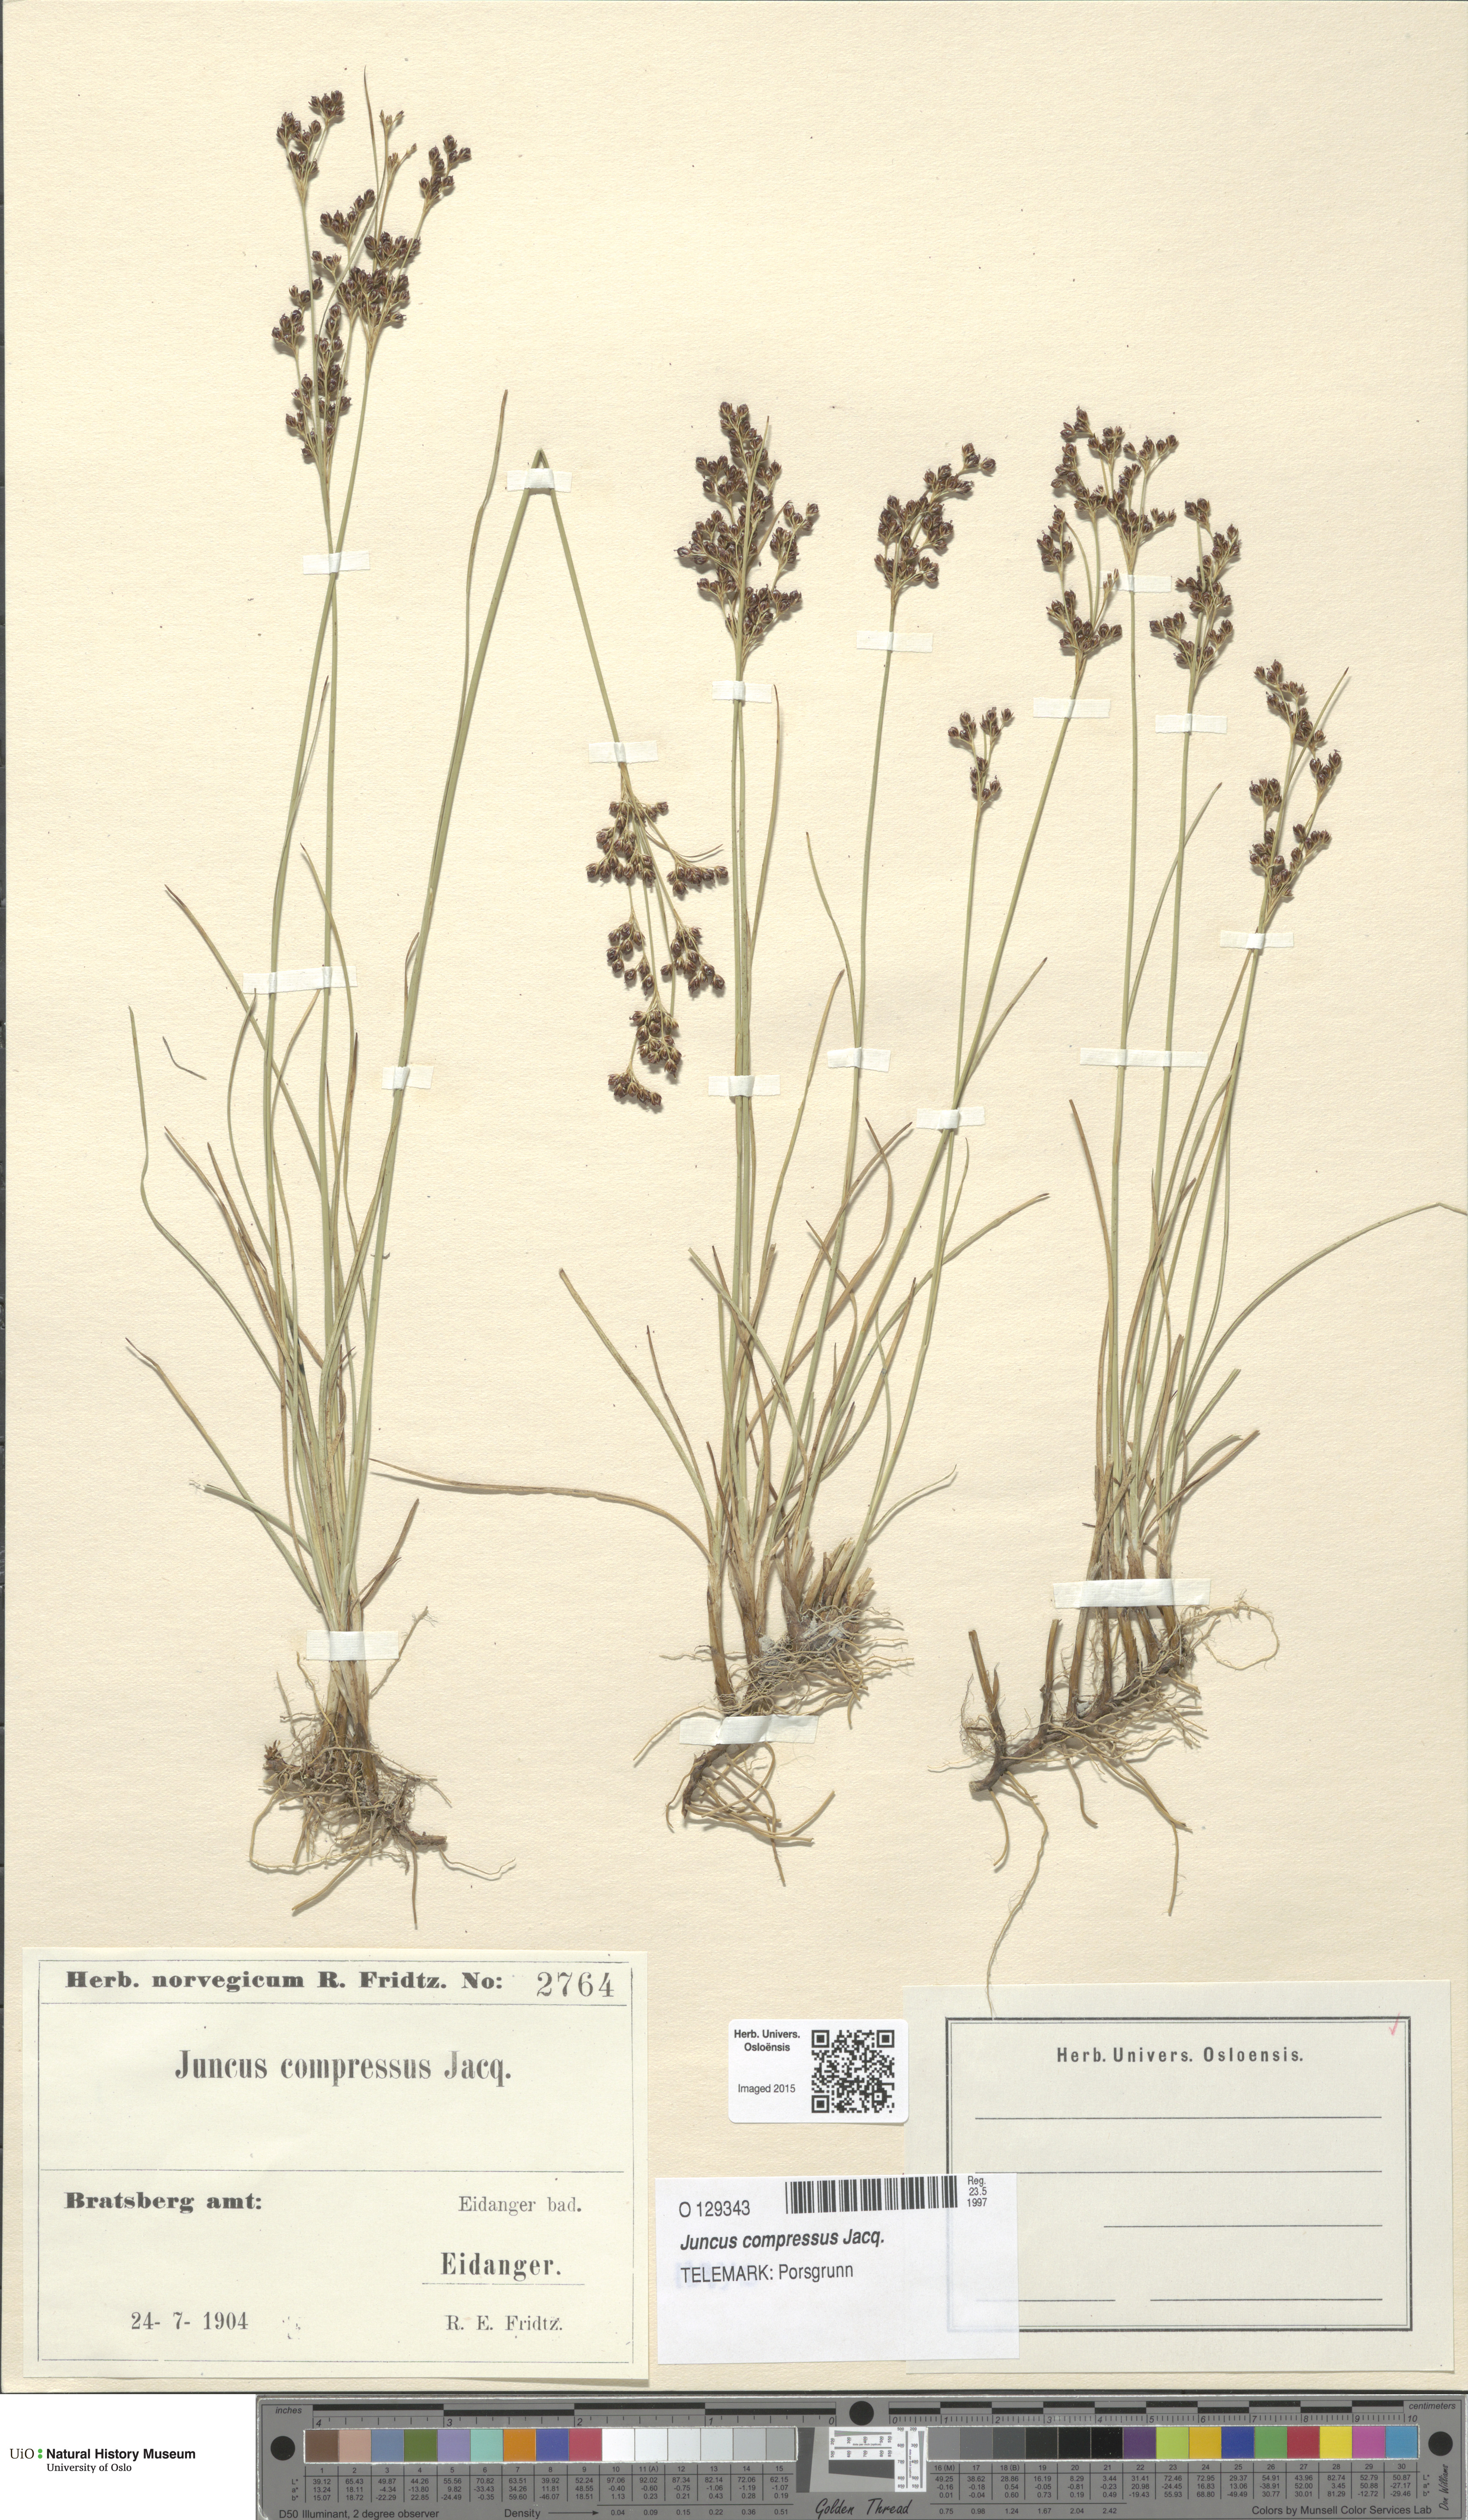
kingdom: Plantae
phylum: Tracheophyta
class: Liliopsida
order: Poales
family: Juncaceae
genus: Juncus
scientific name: Juncus compressus
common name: Round-fruited rush
